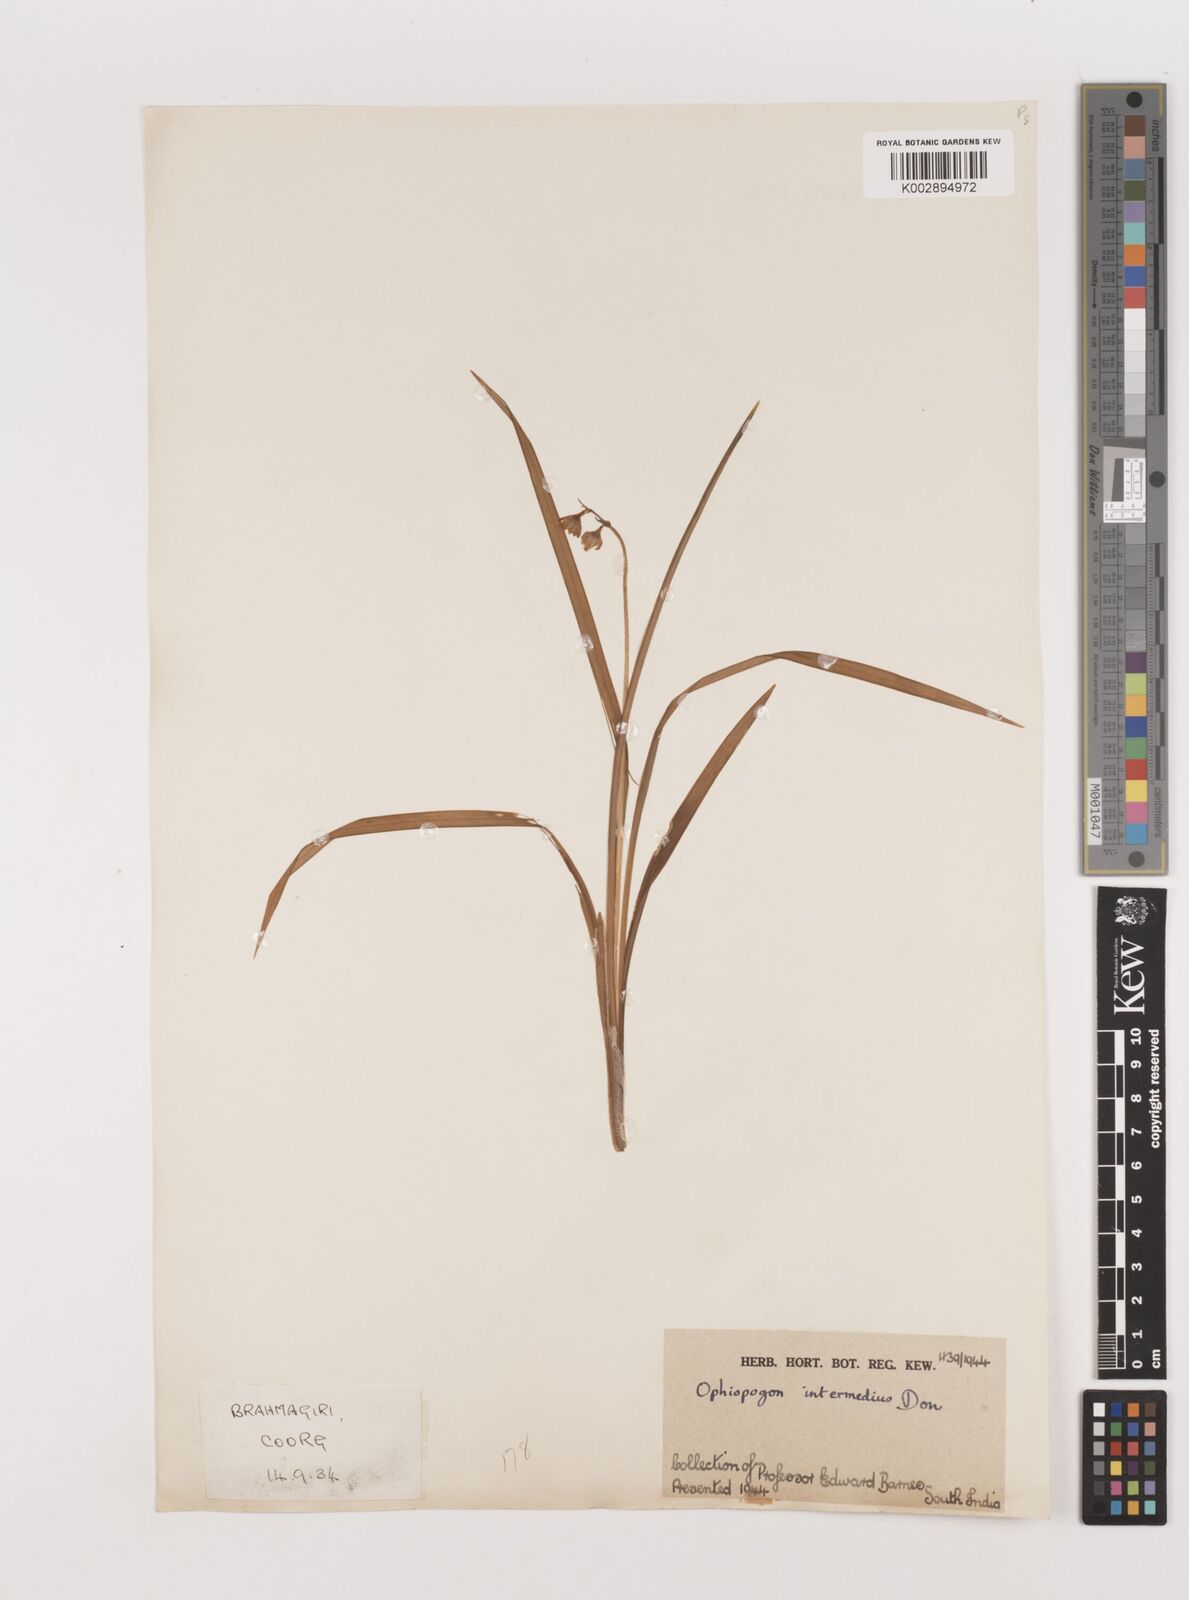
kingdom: Plantae
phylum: Tracheophyta
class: Liliopsida
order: Asparagales
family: Asparagaceae
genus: Ophiopogon
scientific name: Ophiopogon intermedius
